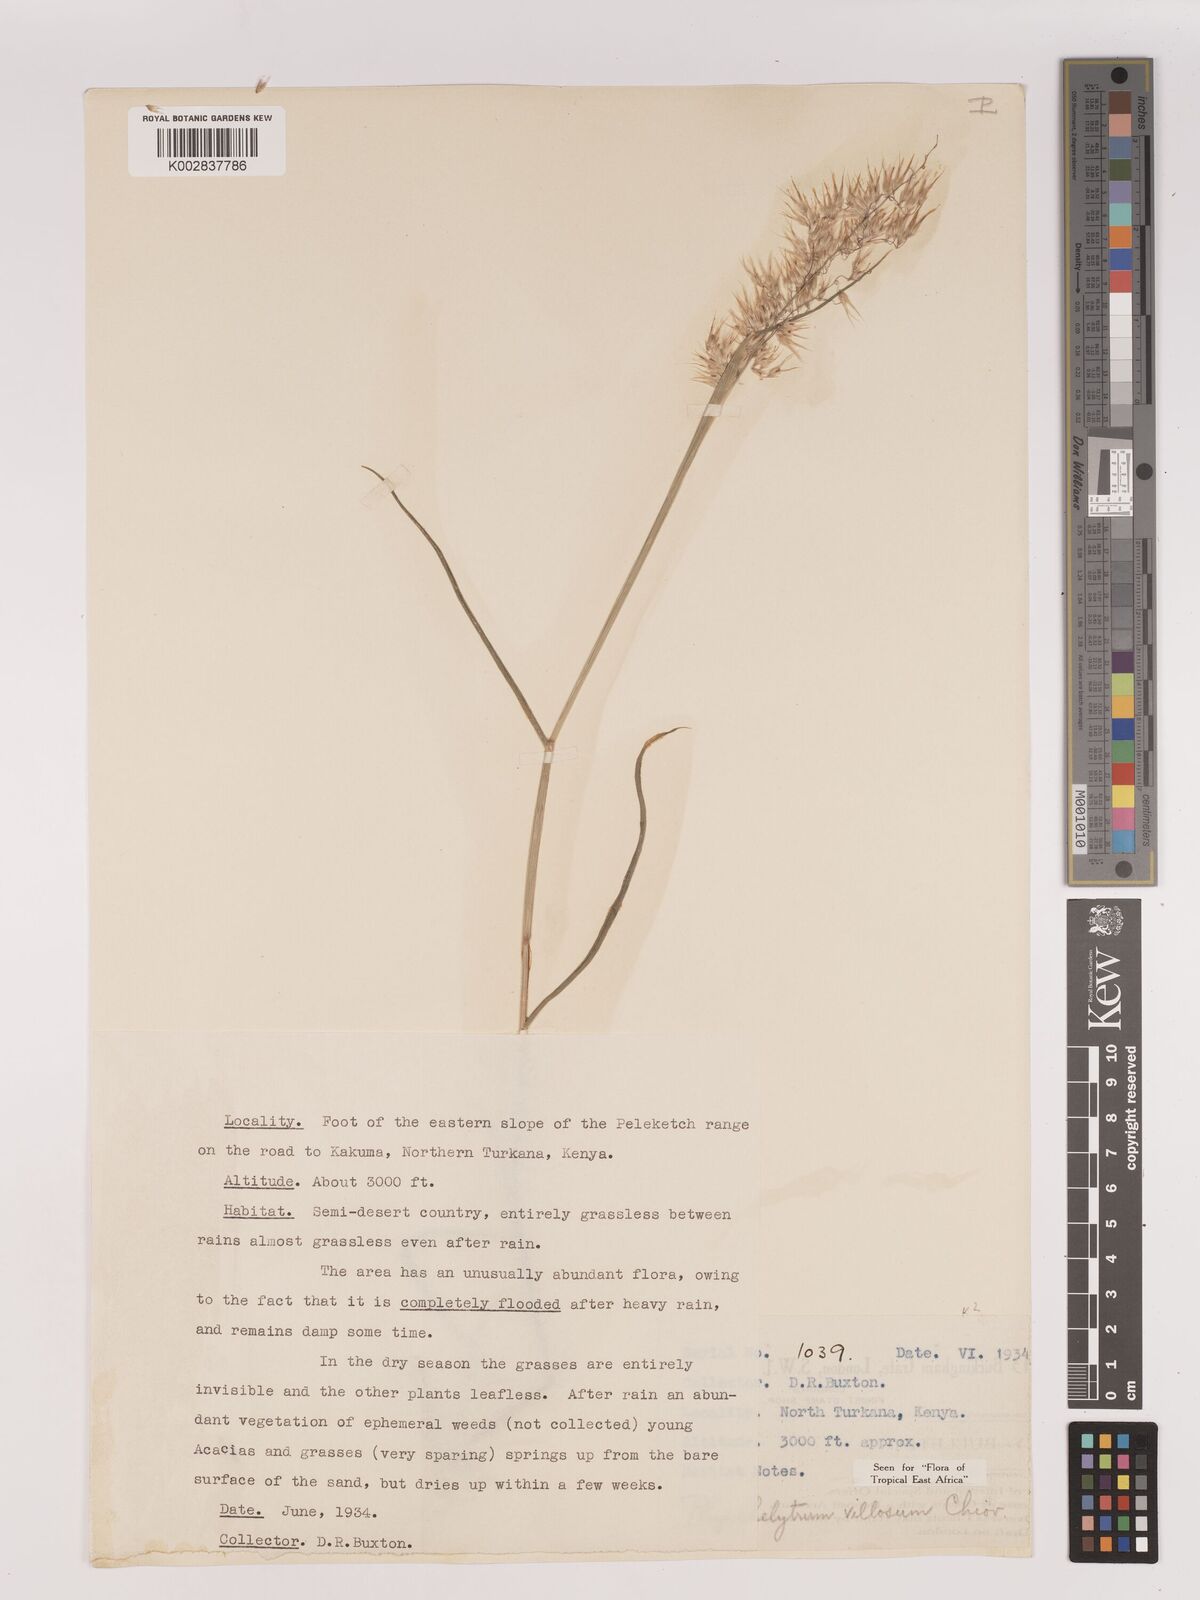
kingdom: Plantae
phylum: Tracheophyta
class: Liliopsida
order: Poales
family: Poaceae
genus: Melinis
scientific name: Melinis repens
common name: Rose natal grass
